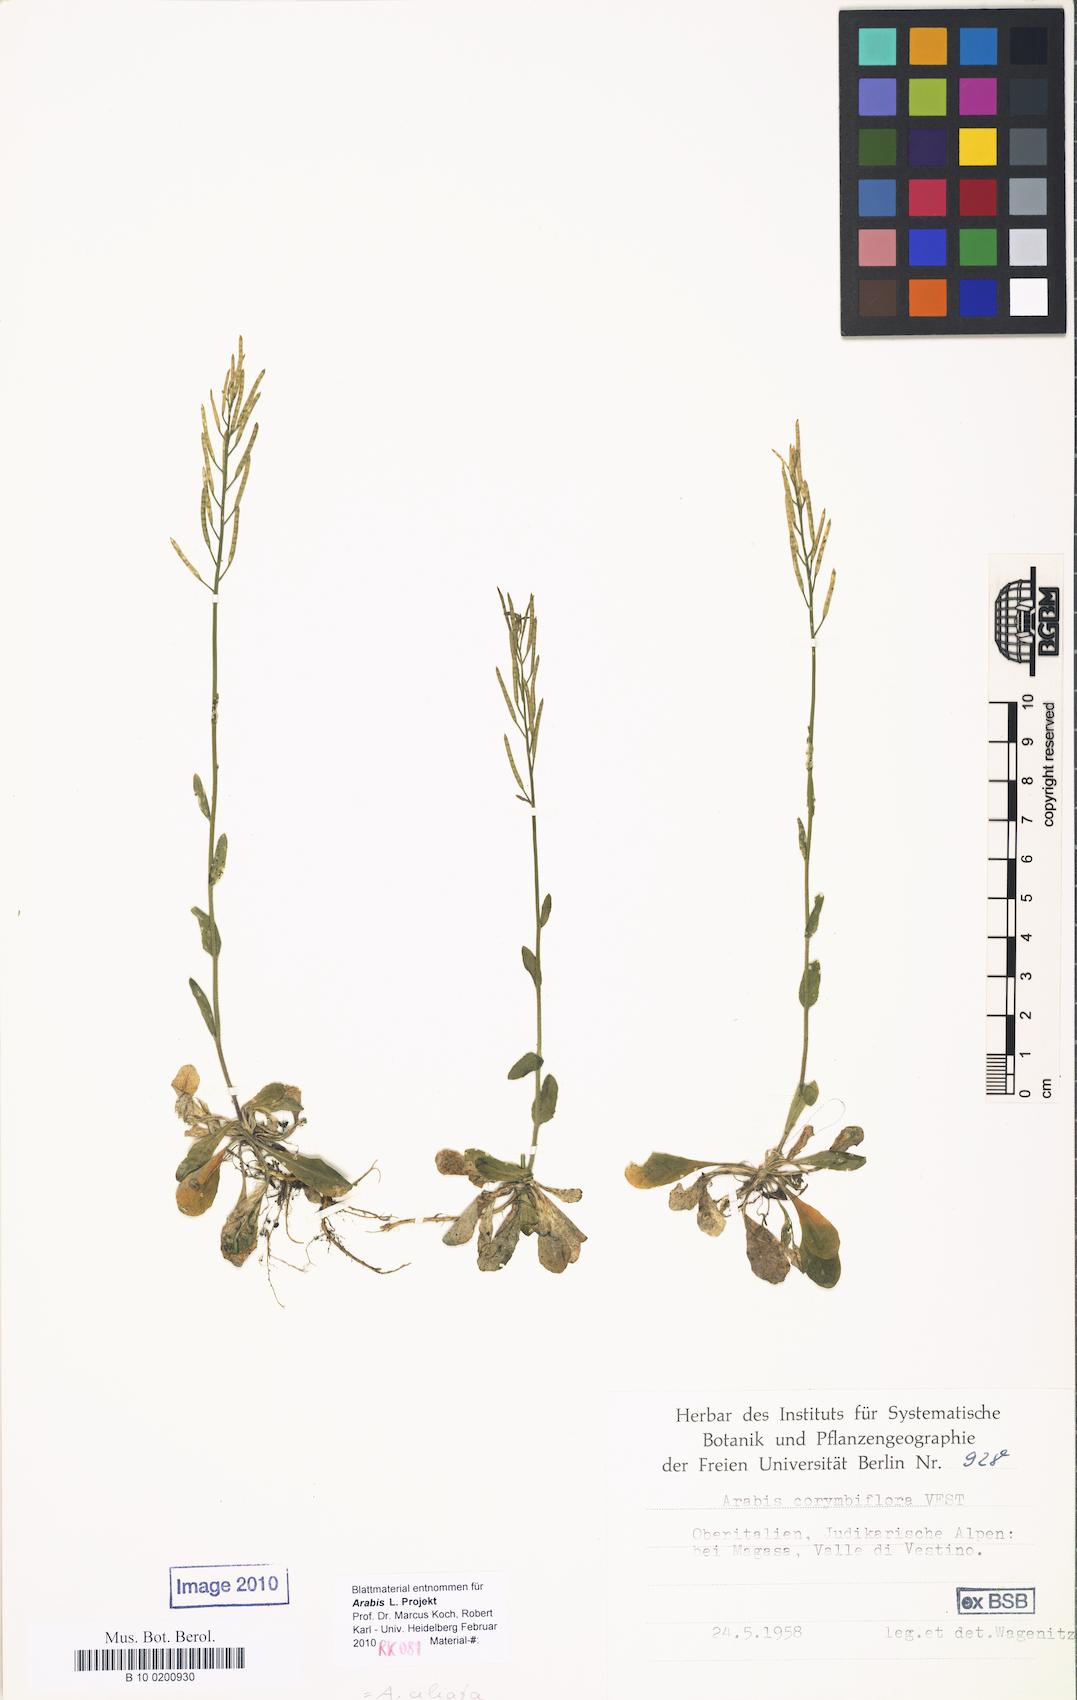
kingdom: Plantae
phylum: Tracheophyta
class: Magnoliopsida
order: Brassicales
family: Brassicaceae
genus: Arabis
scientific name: Arabis ciliata
